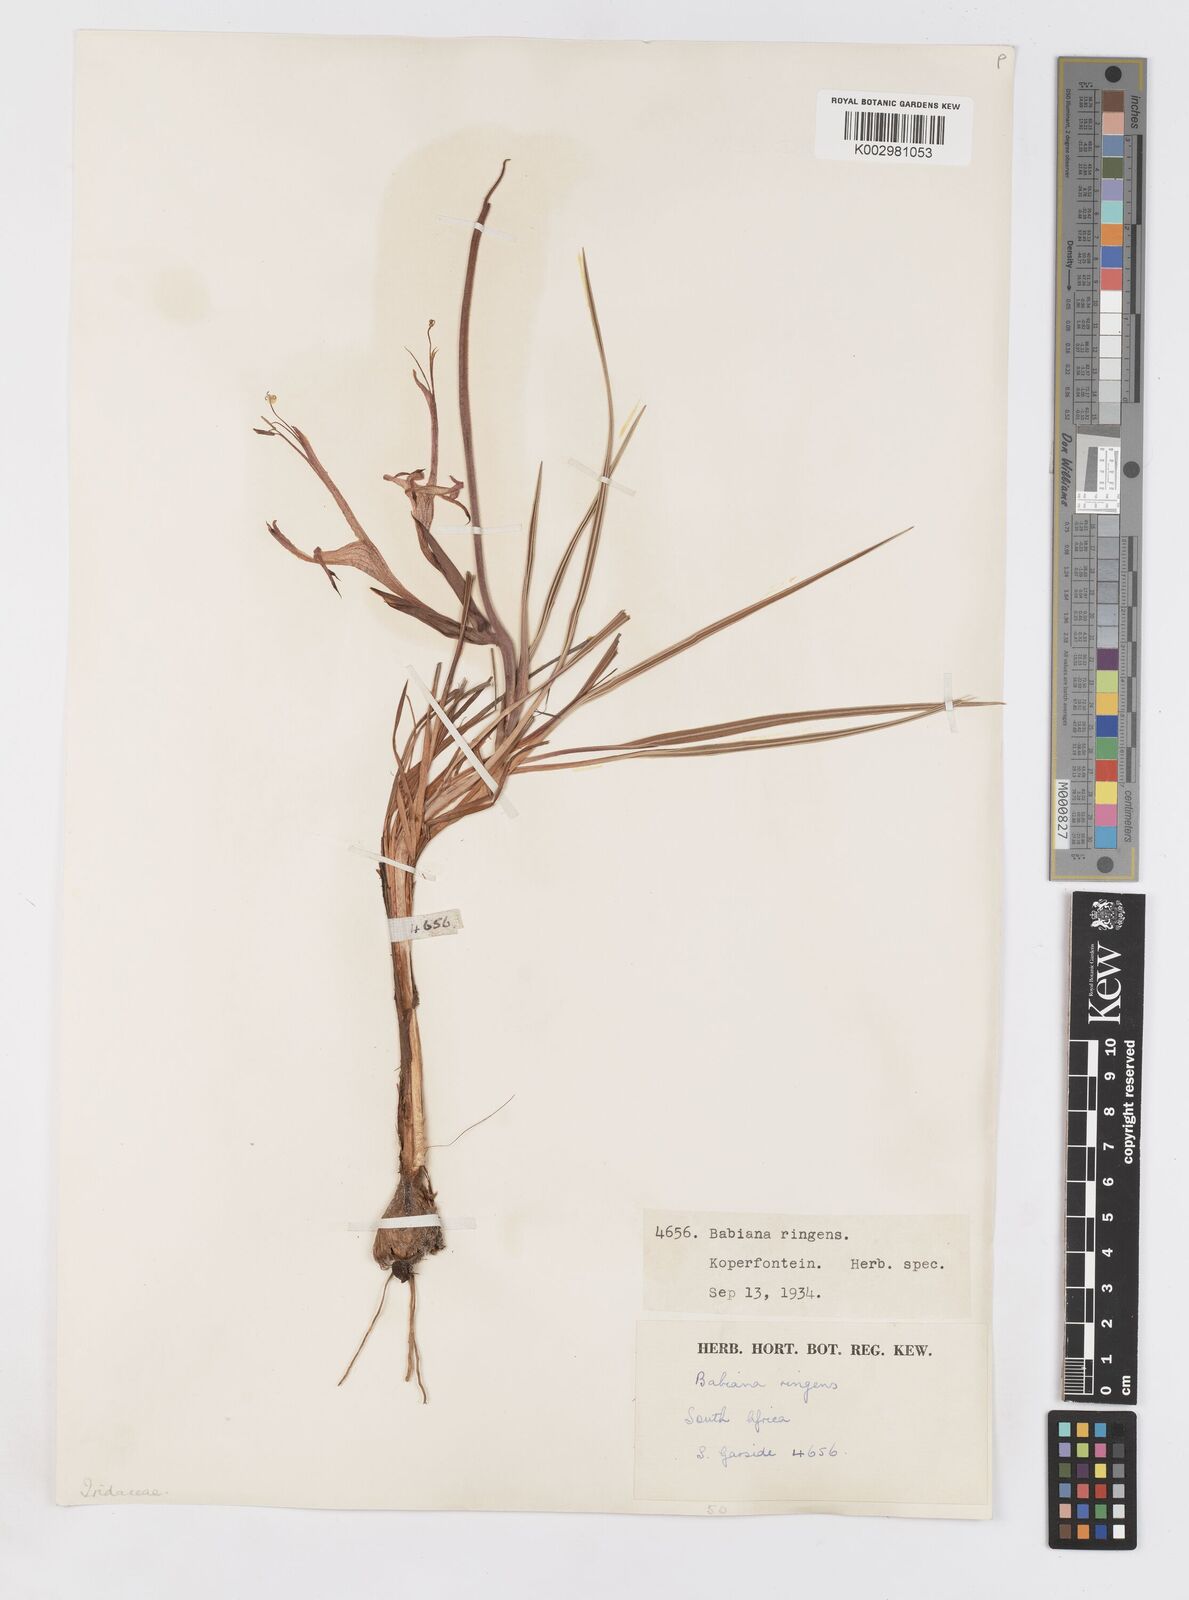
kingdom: Plantae
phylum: Tracheophyta
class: Liliopsida
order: Asparagales
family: Iridaceae
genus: Babiana
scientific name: Babiana ringens
